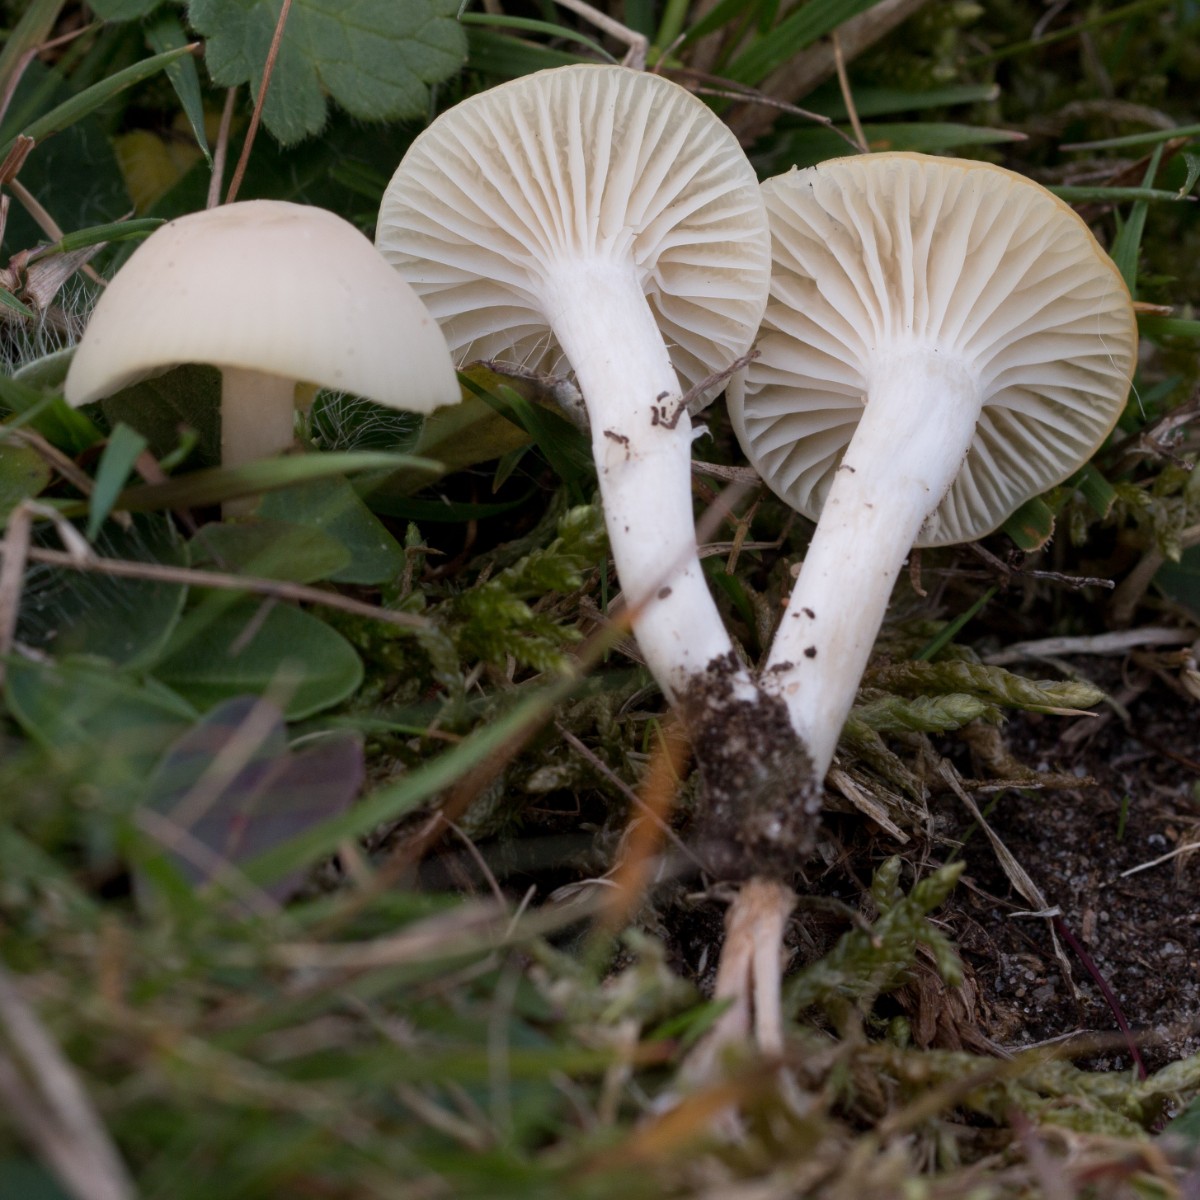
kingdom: Fungi
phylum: Basidiomycota
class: Agaricomycetes
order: Agaricales
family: Hygrophoraceae
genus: Cuphophyllus
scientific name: Cuphophyllus virgineus
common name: snehvid vokshat
